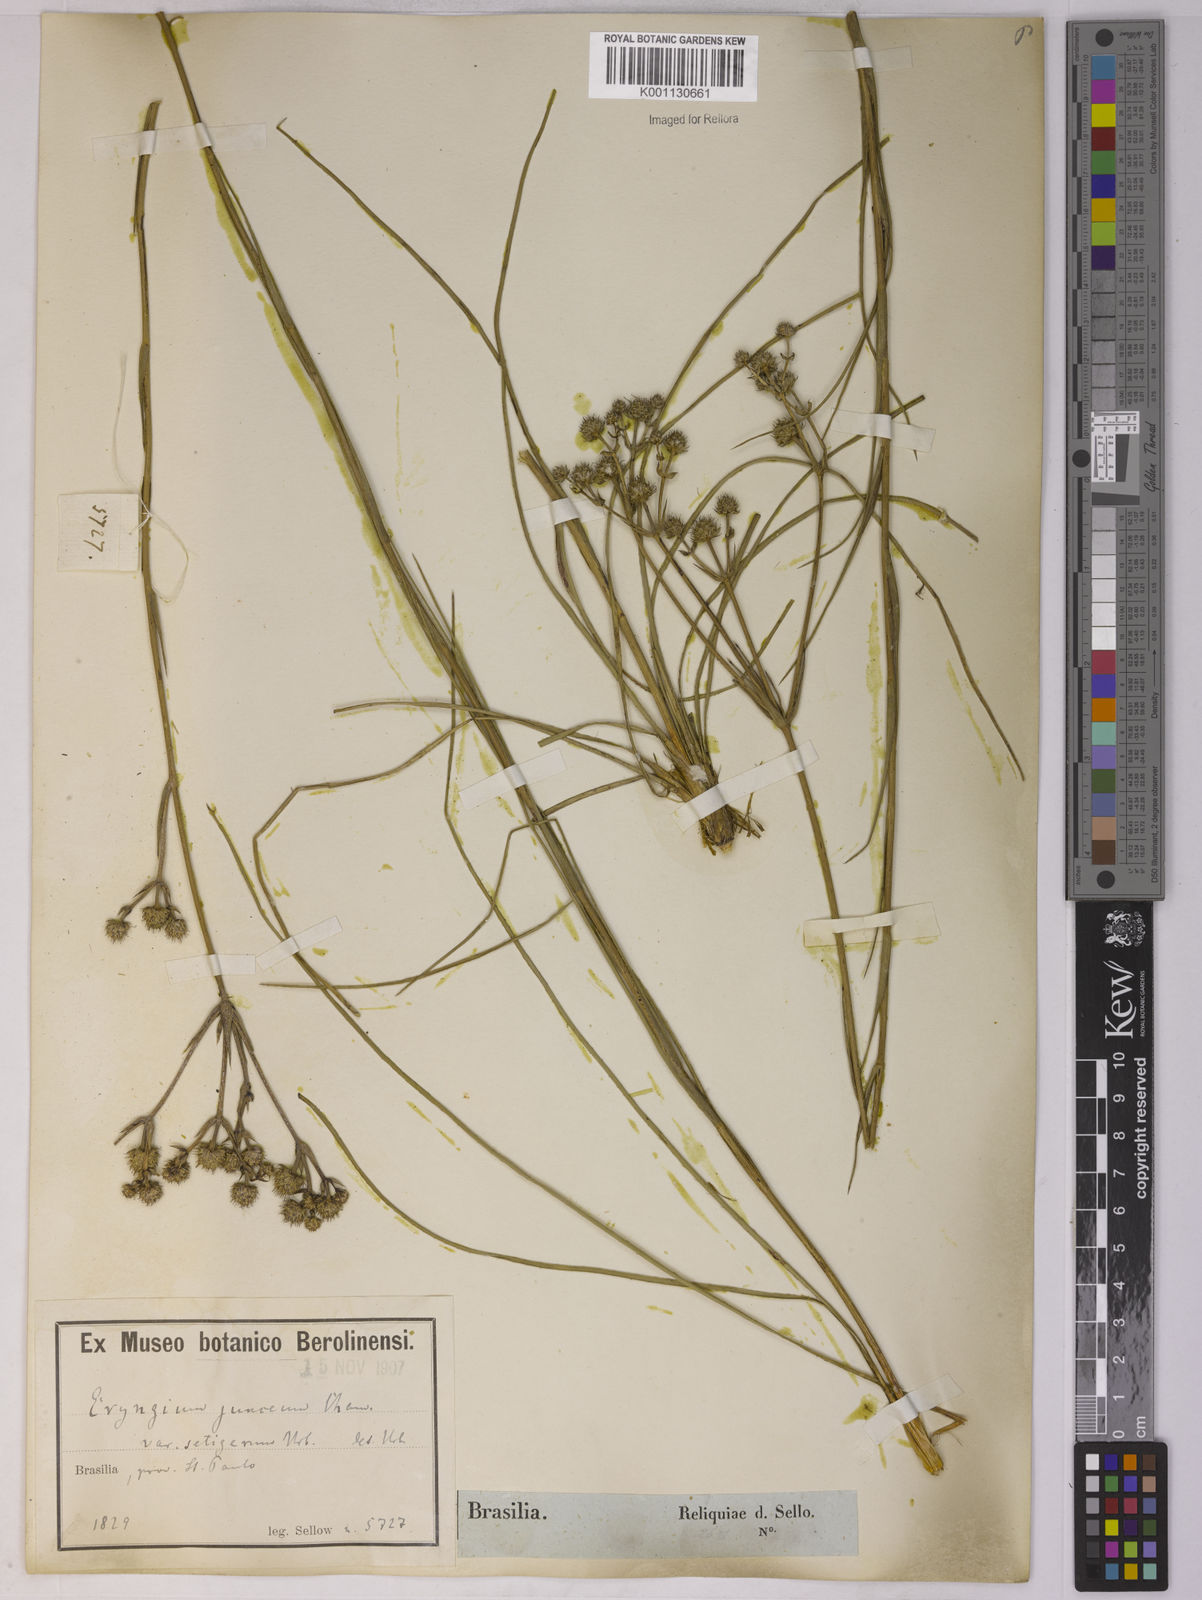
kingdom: Plantae
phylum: Tracheophyta
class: Magnoliopsida
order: Apiales
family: Apiaceae
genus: Eryngium
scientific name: Eryngium junceum
